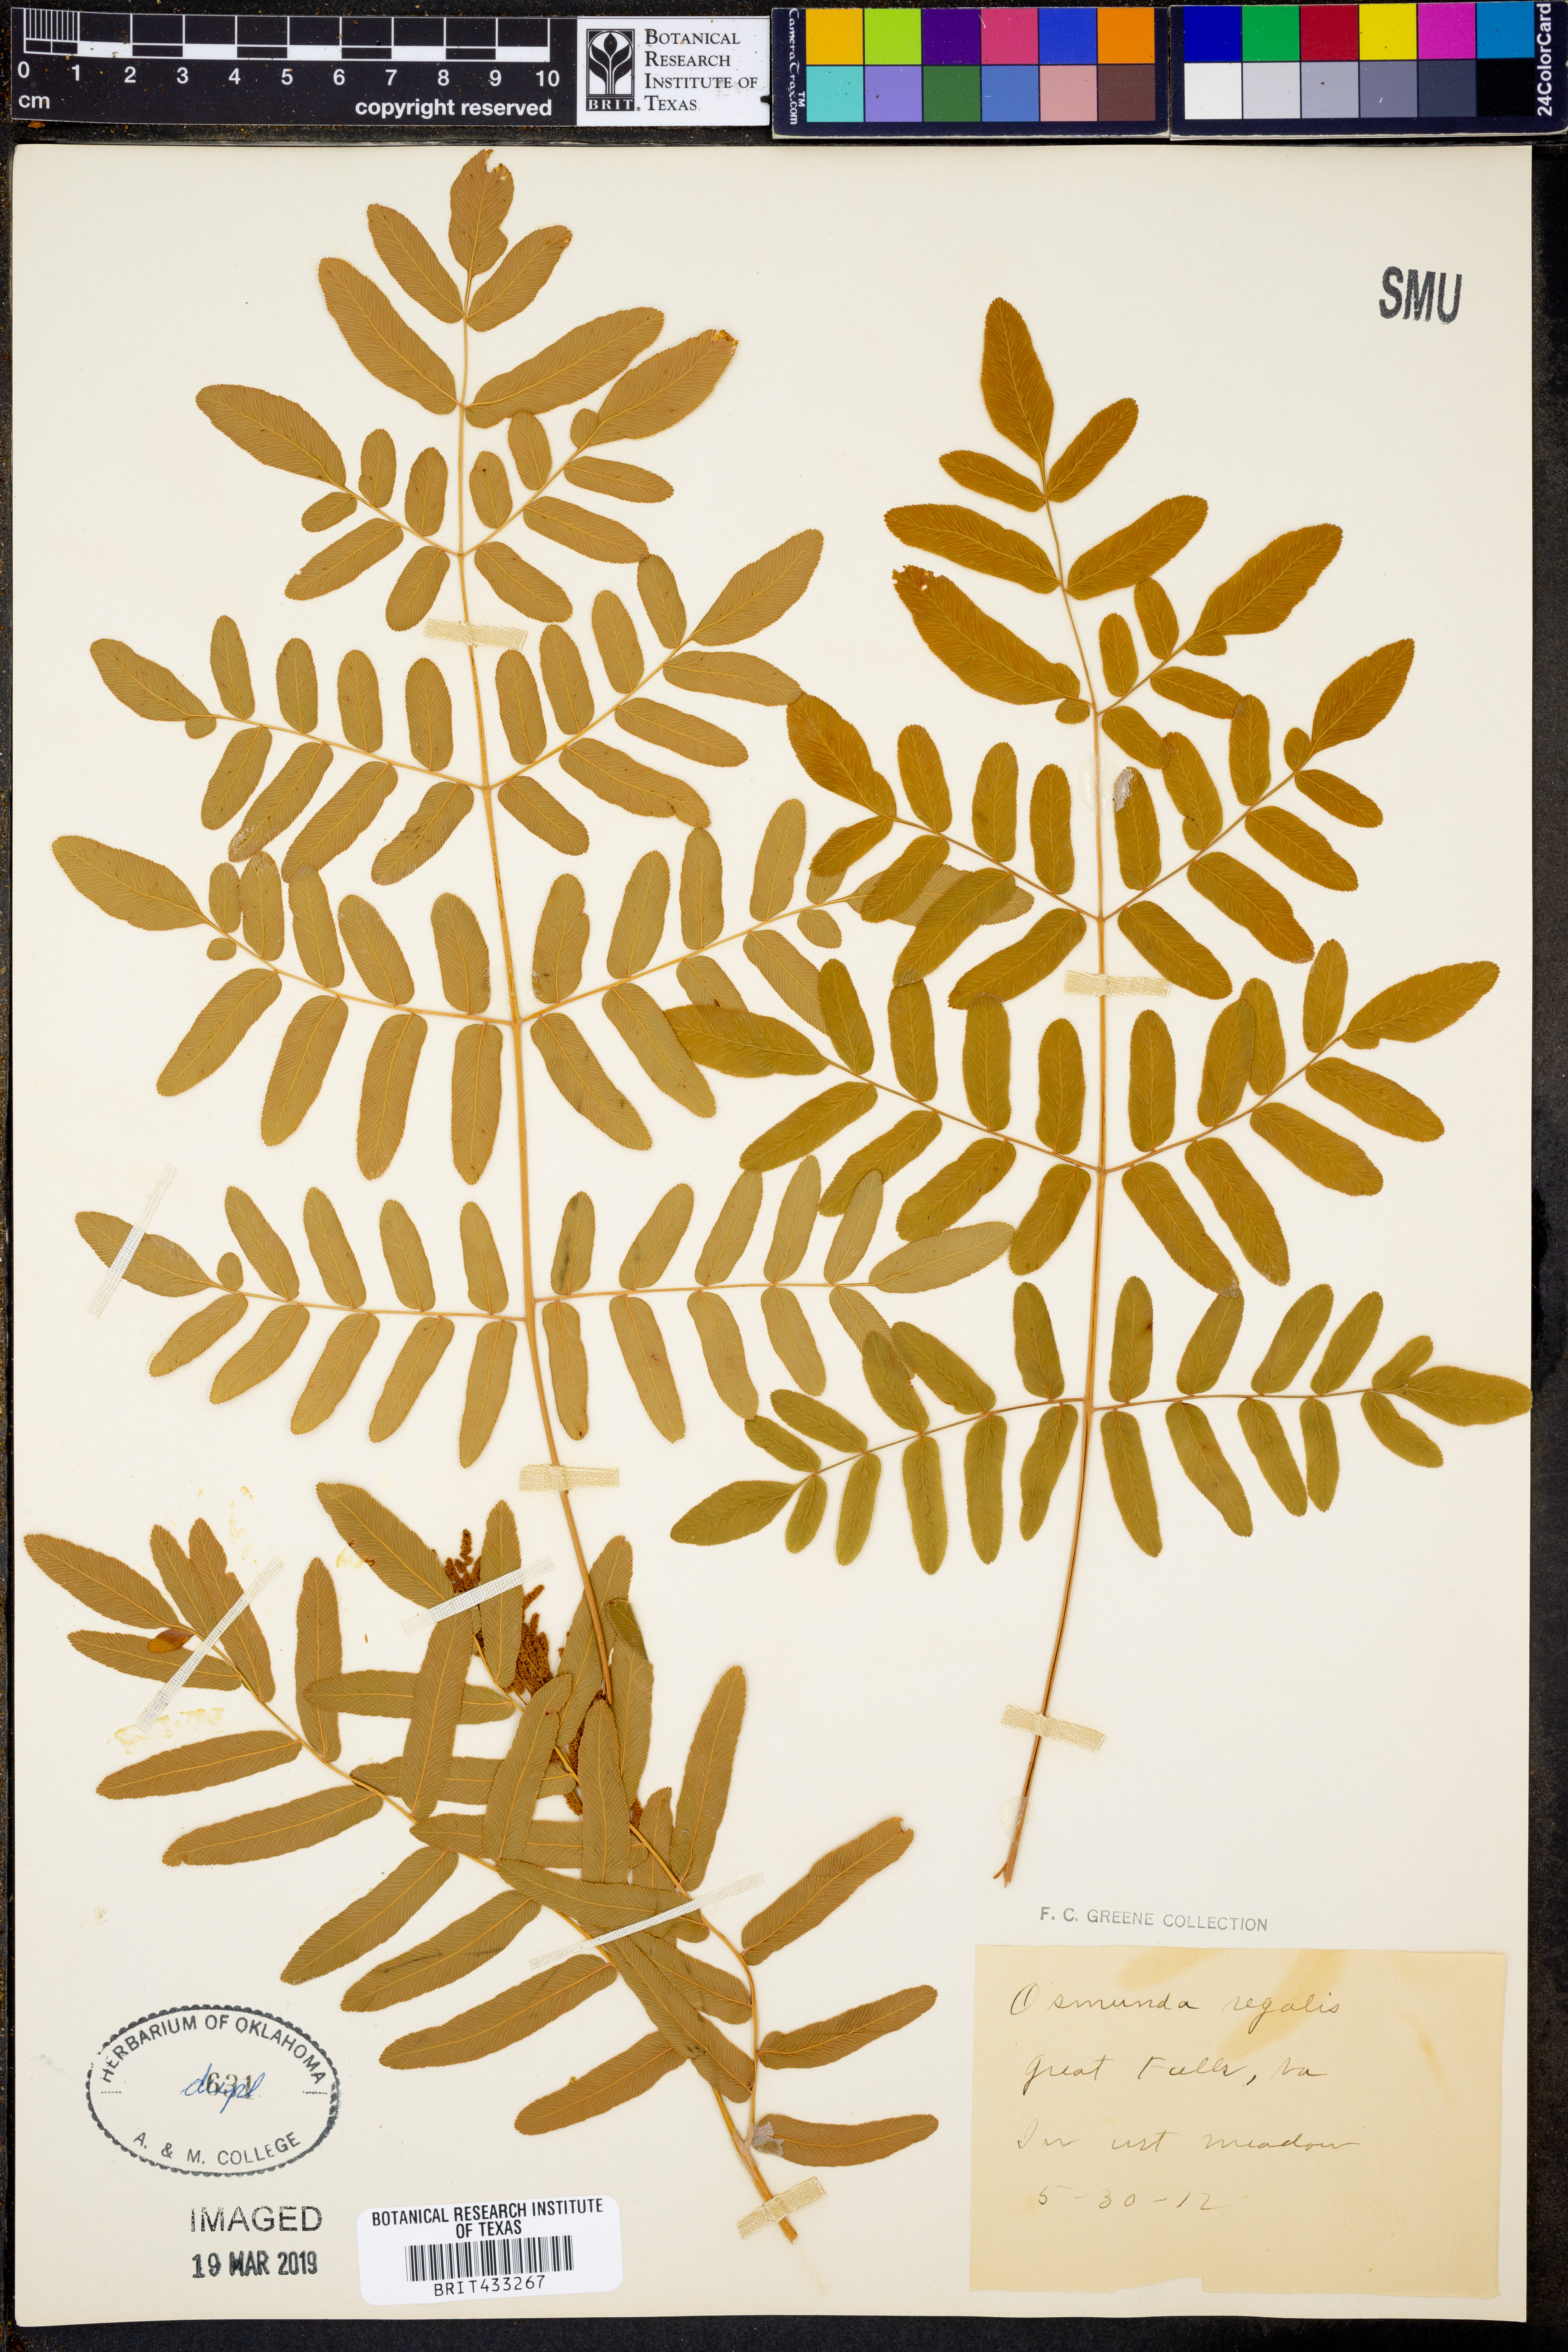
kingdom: Plantae
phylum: Tracheophyta
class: Polypodiopsida
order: Osmundales
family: Osmundaceae
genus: Osmunda
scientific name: Osmunda regalis
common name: Royal fern
